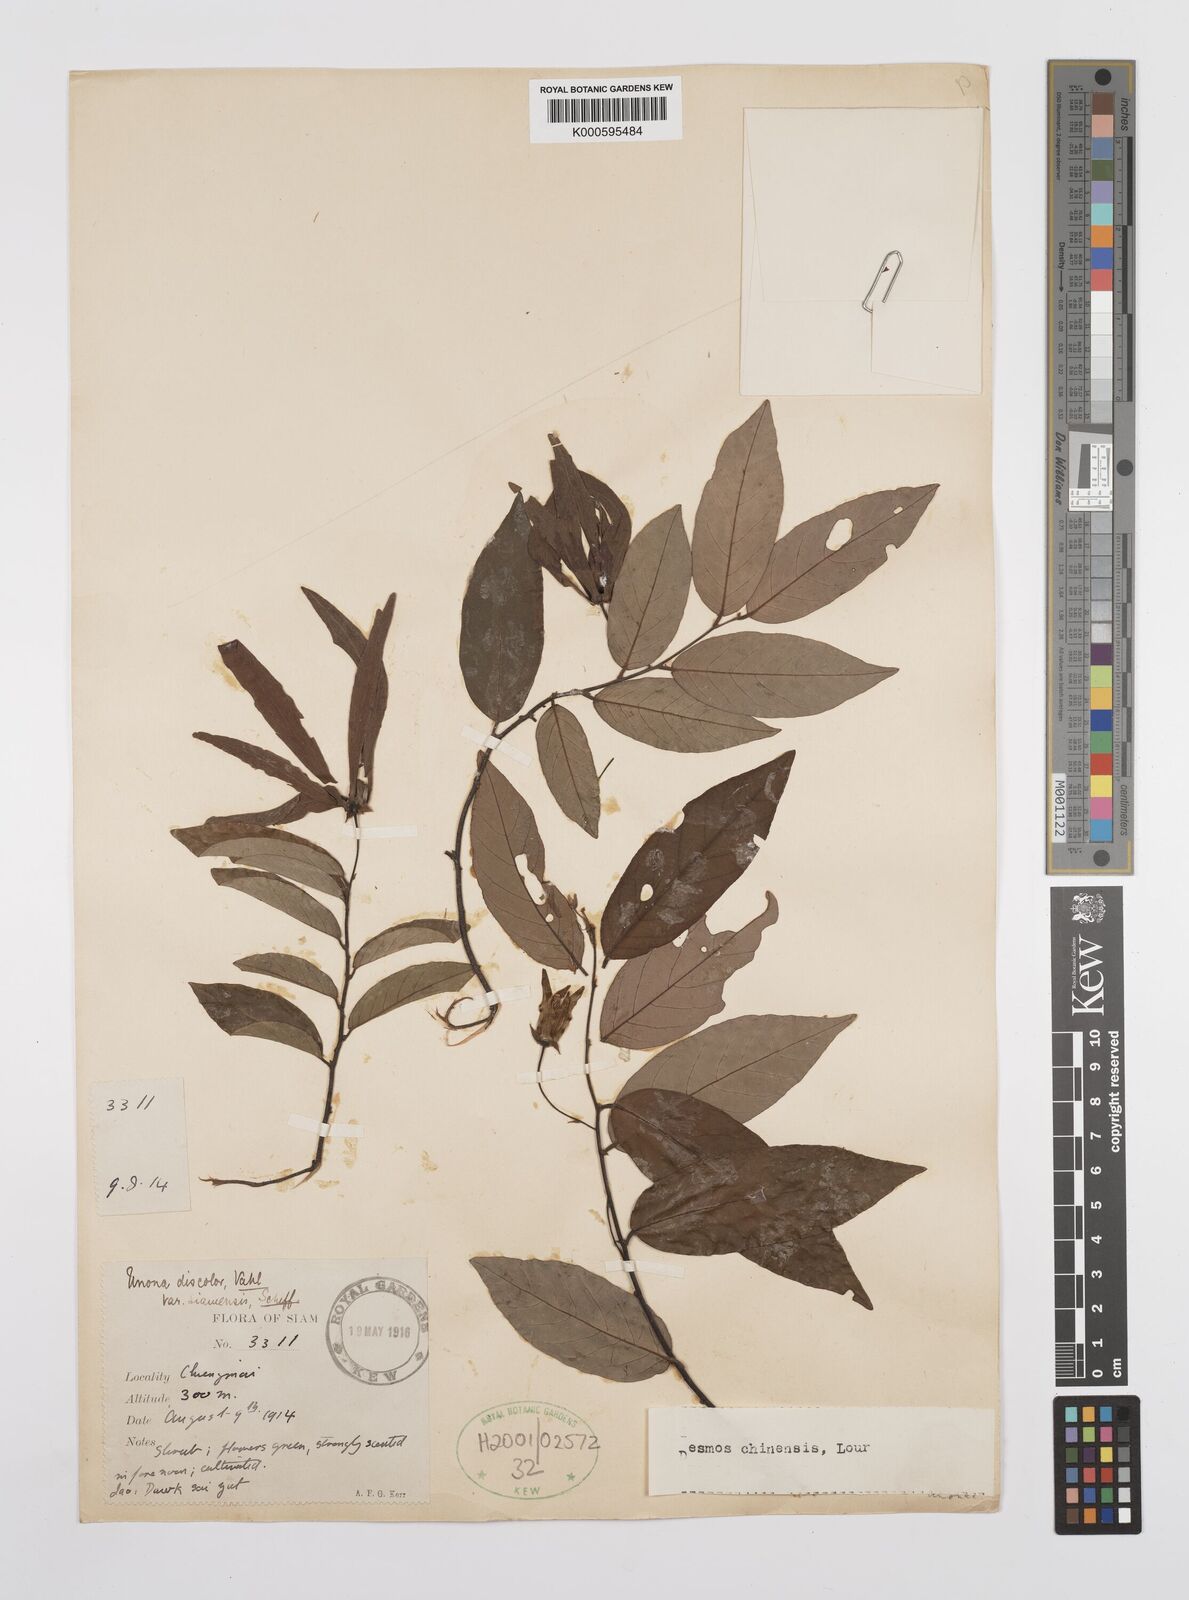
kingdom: Plantae
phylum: Tracheophyta
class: Magnoliopsida
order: Magnoliales
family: Annonaceae
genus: Desmos
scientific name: Desmos chinensis
